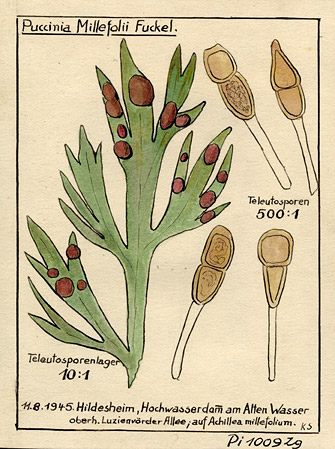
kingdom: Fungi
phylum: Basidiomycota
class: Pucciniomycetes
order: Pucciniales
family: Pucciniaceae
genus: Puccinia
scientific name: Puccinia cnici-oleracei
